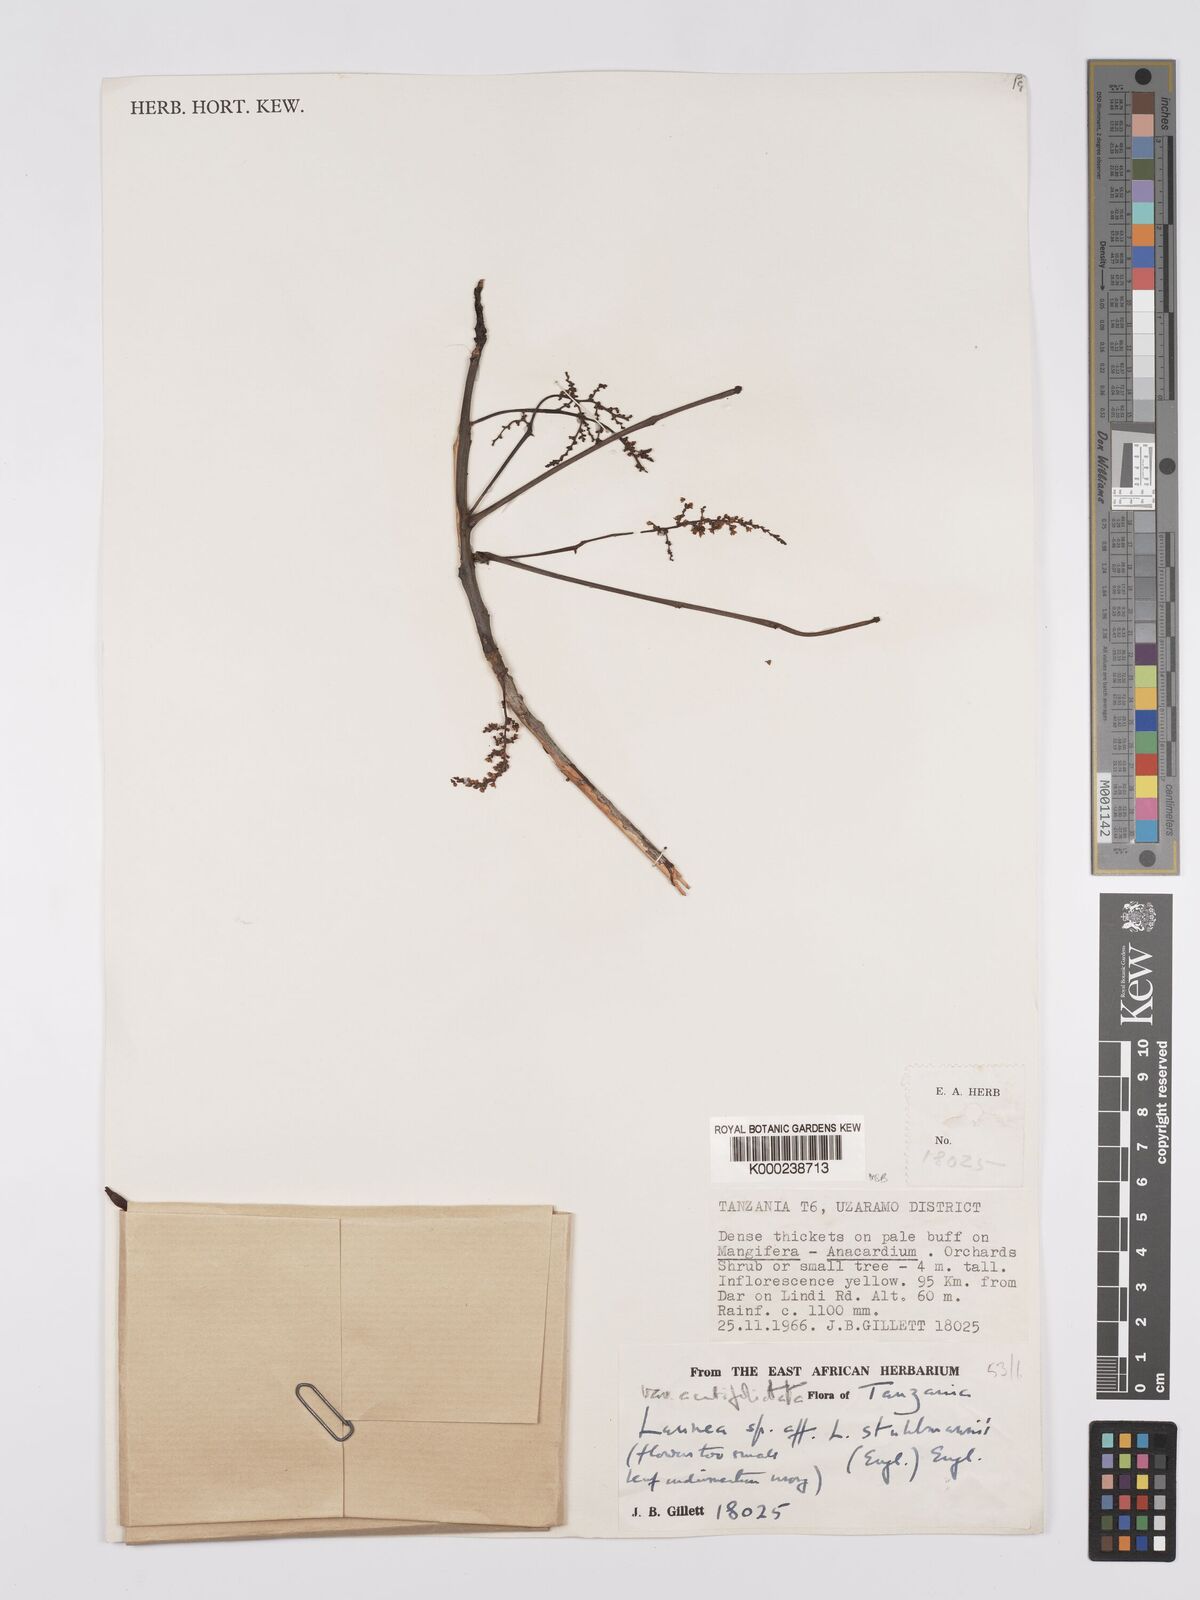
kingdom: Plantae
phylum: Tracheophyta
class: Magnoliopsida
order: Sapindales
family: Anacardiaceae
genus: Lannea
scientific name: Lannea schweinfurthii
